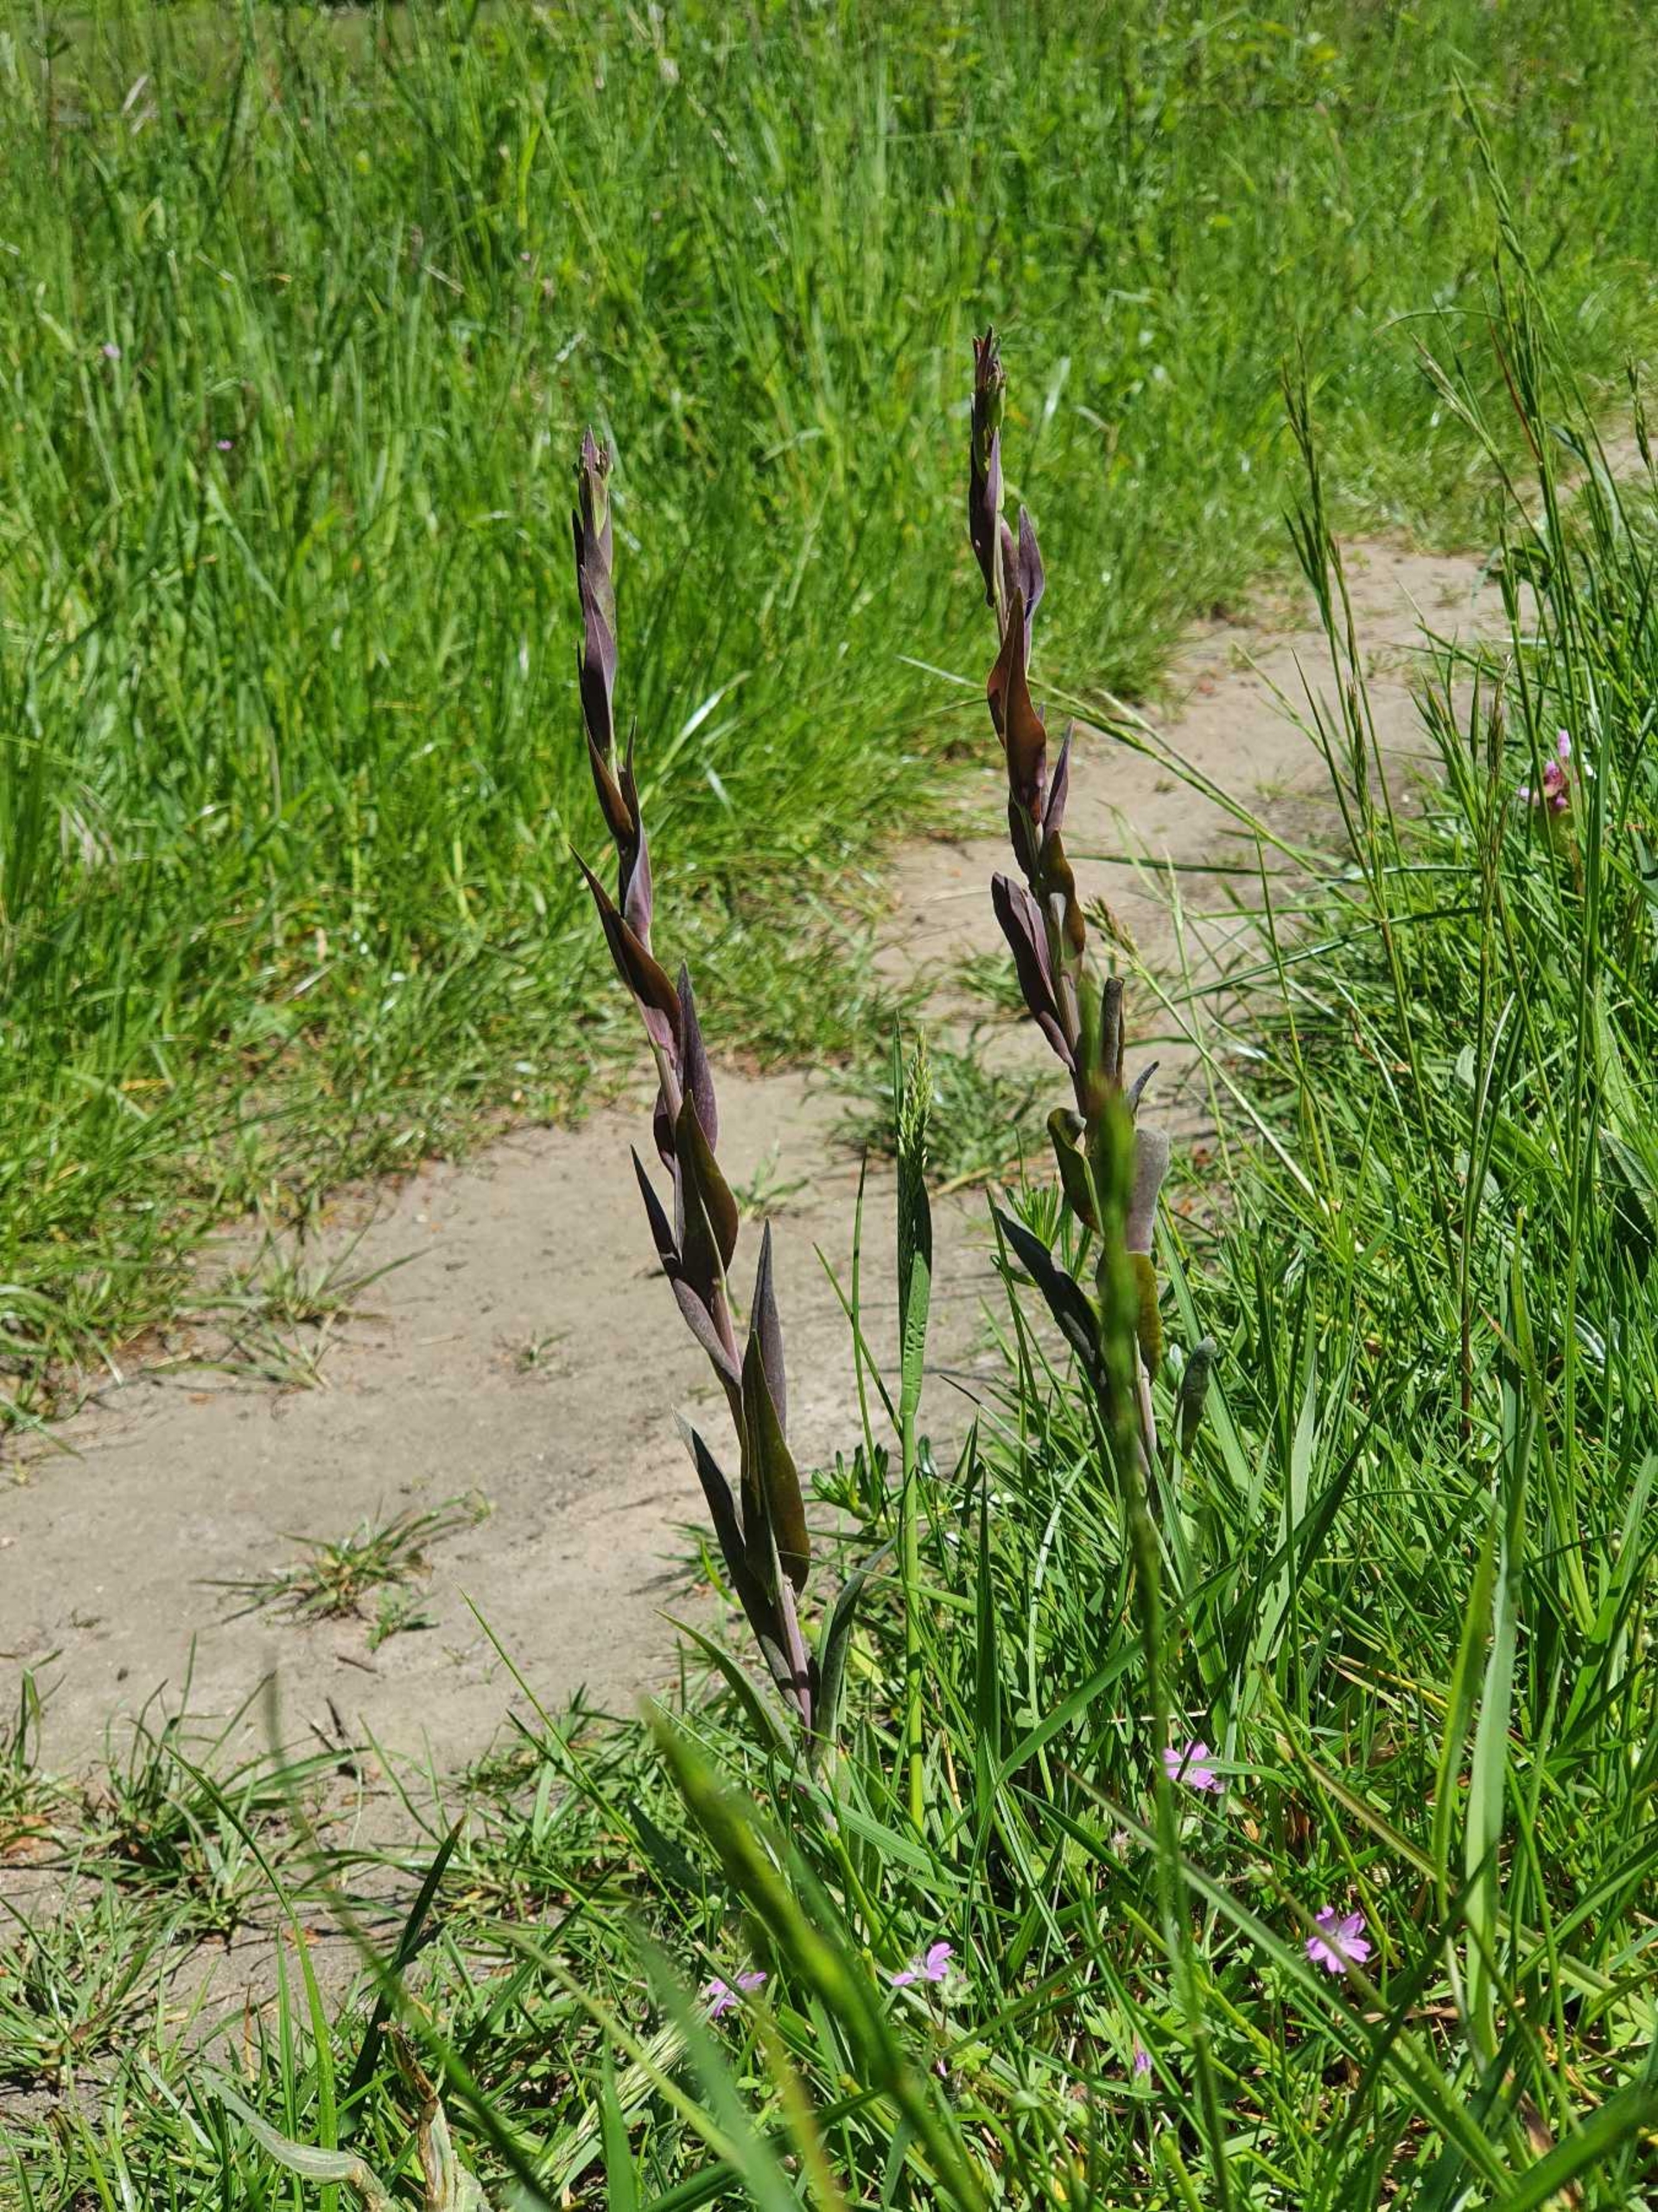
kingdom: Plantae
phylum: Tracheophyta
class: Magnoliopsida
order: Brassicales
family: Brassicaceae
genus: Turritis
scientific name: Turritis glabra
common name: Tårnurt
